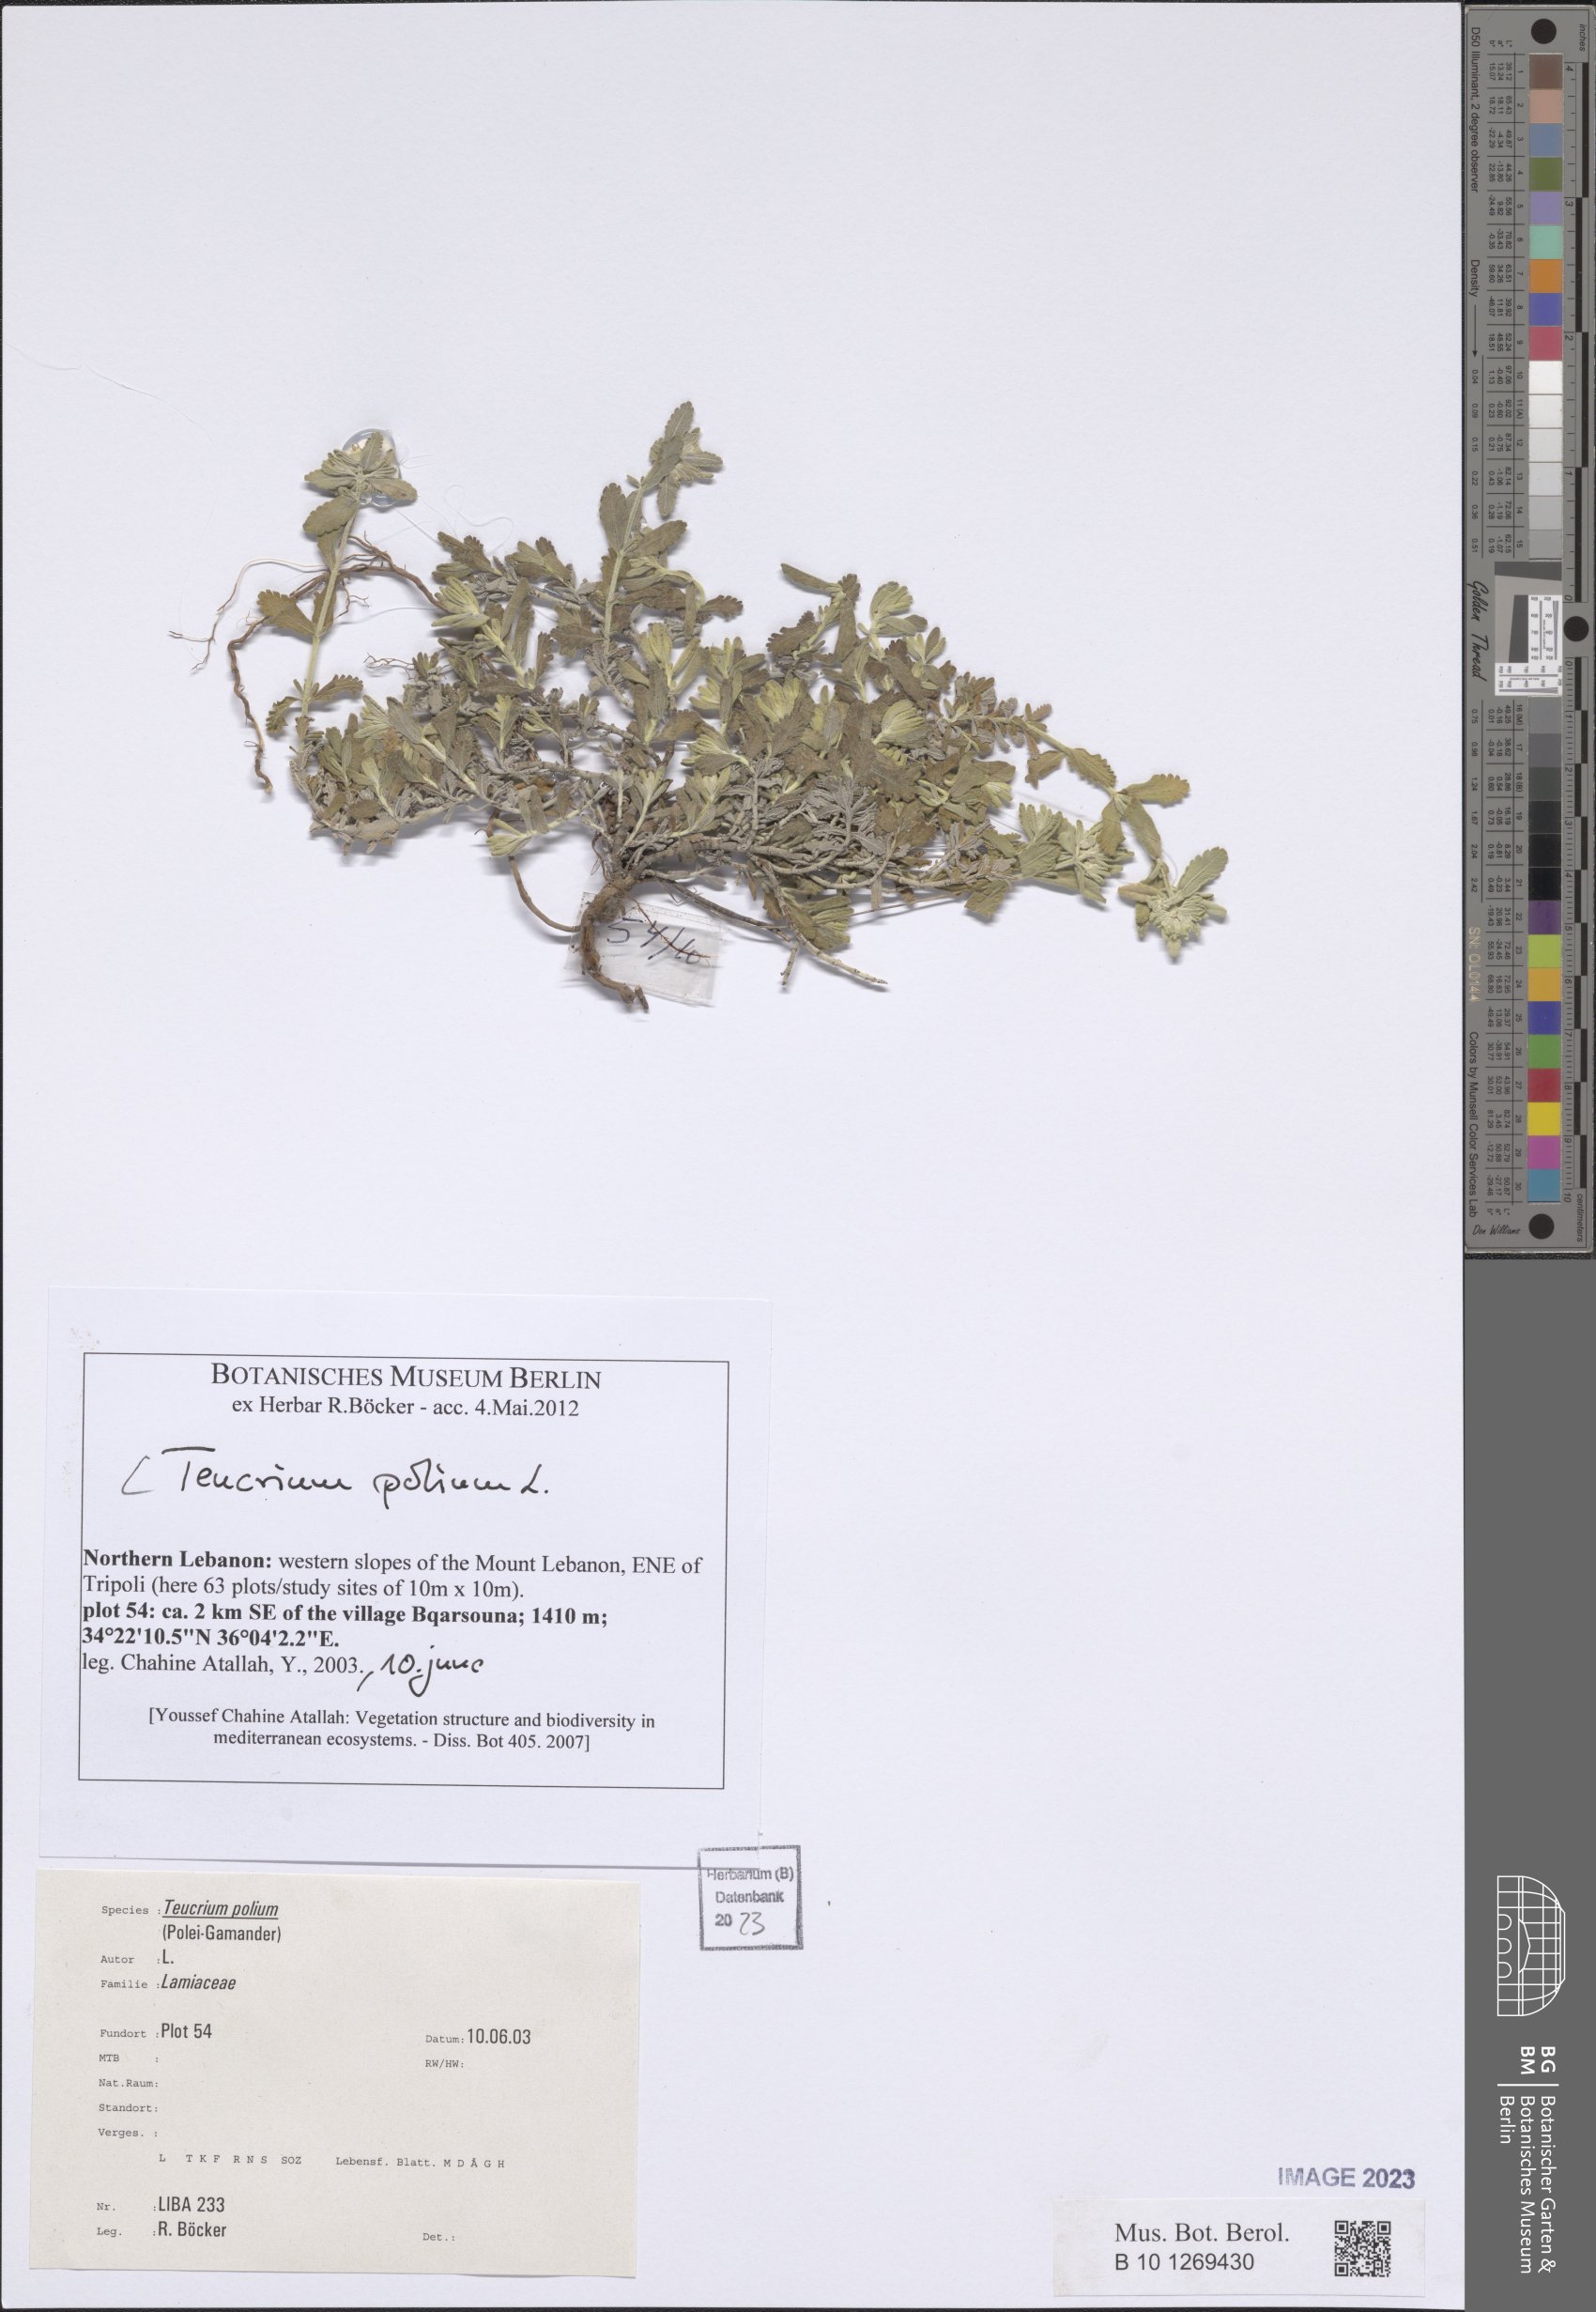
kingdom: Plantae
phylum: Tracheophyta
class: Magnoliopsida
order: Lamiales
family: Lamiaceae
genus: Teucrium
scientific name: Teucrium polium
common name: Poley
